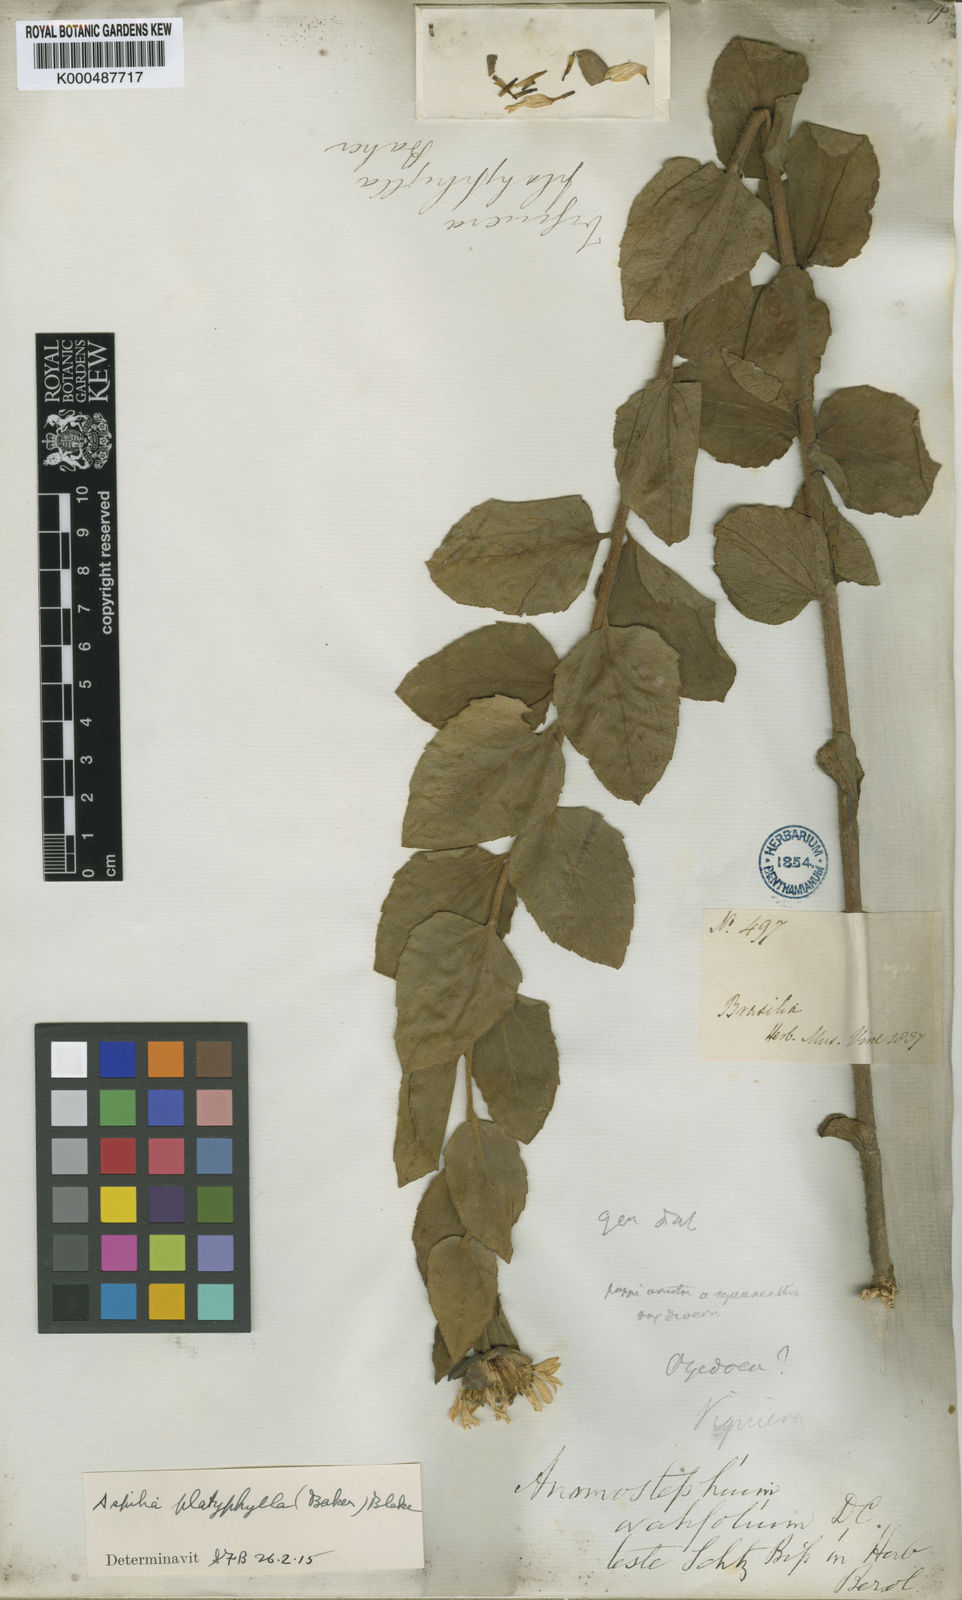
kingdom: Plantae
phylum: Tracheophyta
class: Magnoliopsida
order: Asterales
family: Asteraceae
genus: Aspilia
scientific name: Aspilia platyphylla
